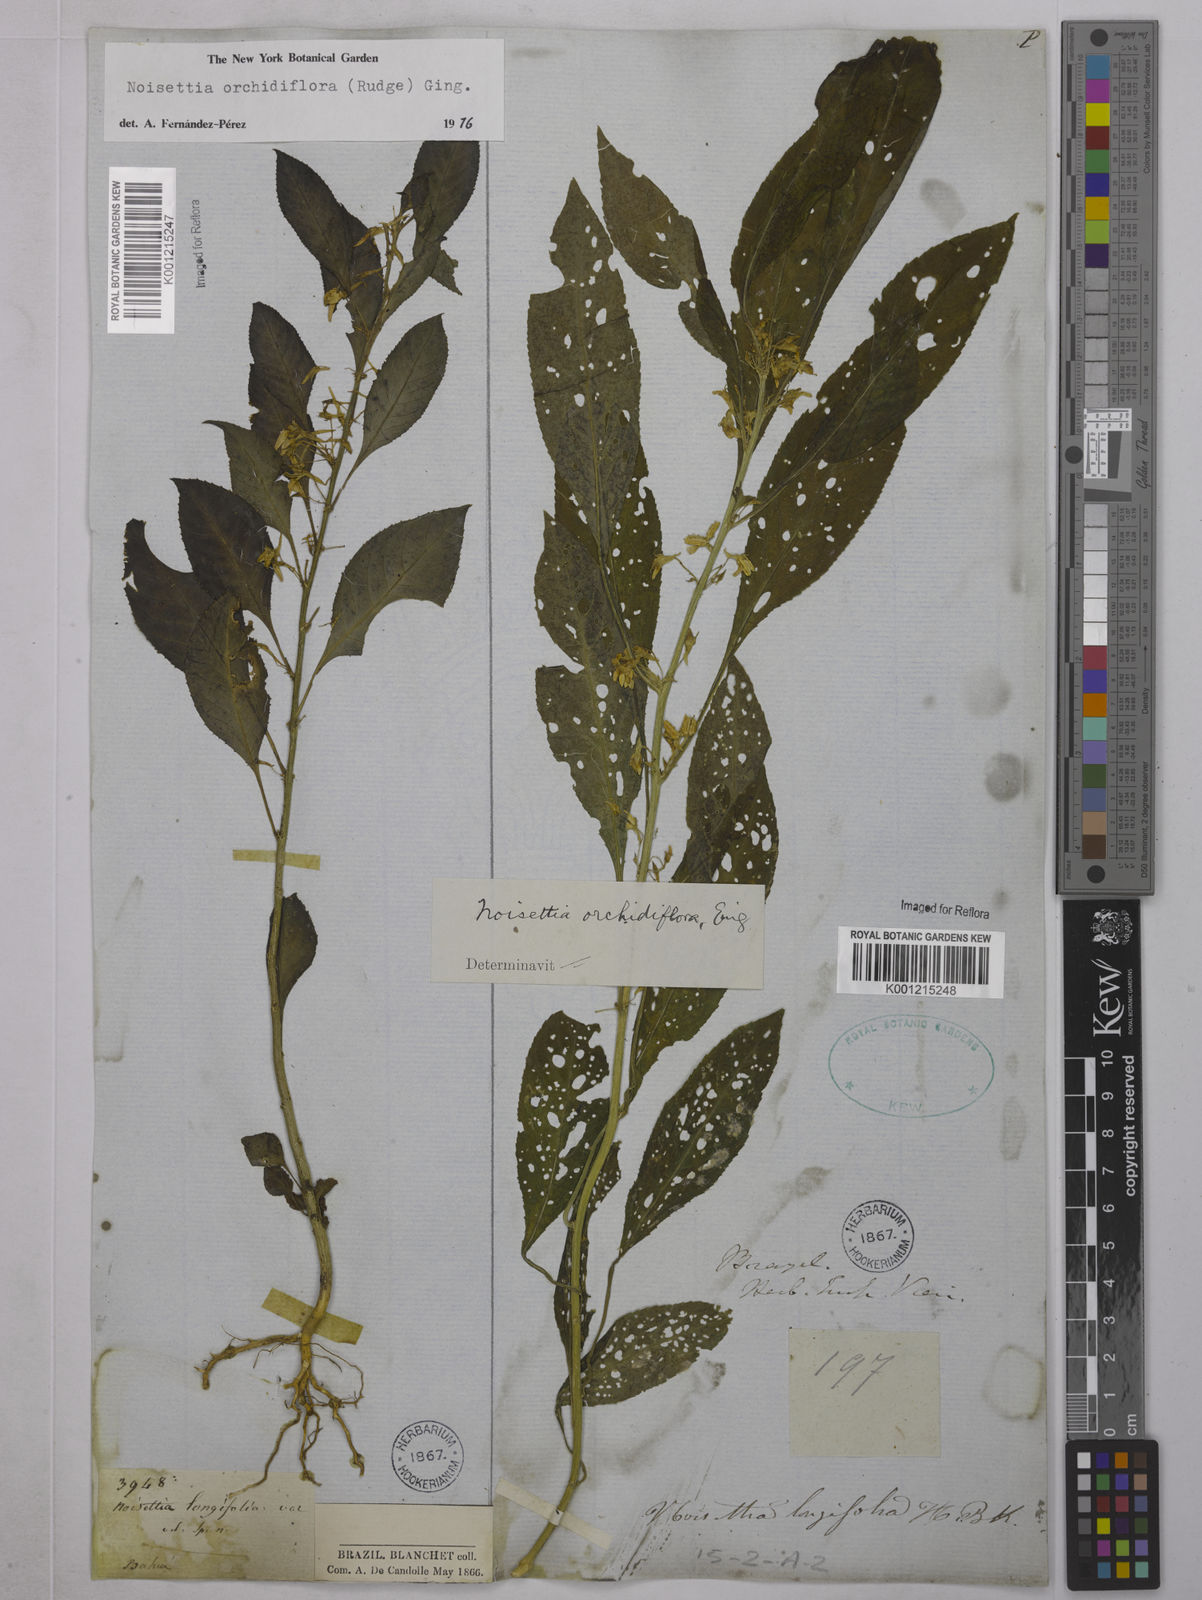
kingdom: Plantae
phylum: Tracheophyta
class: Magnoliopsida
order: Malpighiales
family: Violaceae
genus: Noisettia
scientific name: Noisettia orchidiflora
